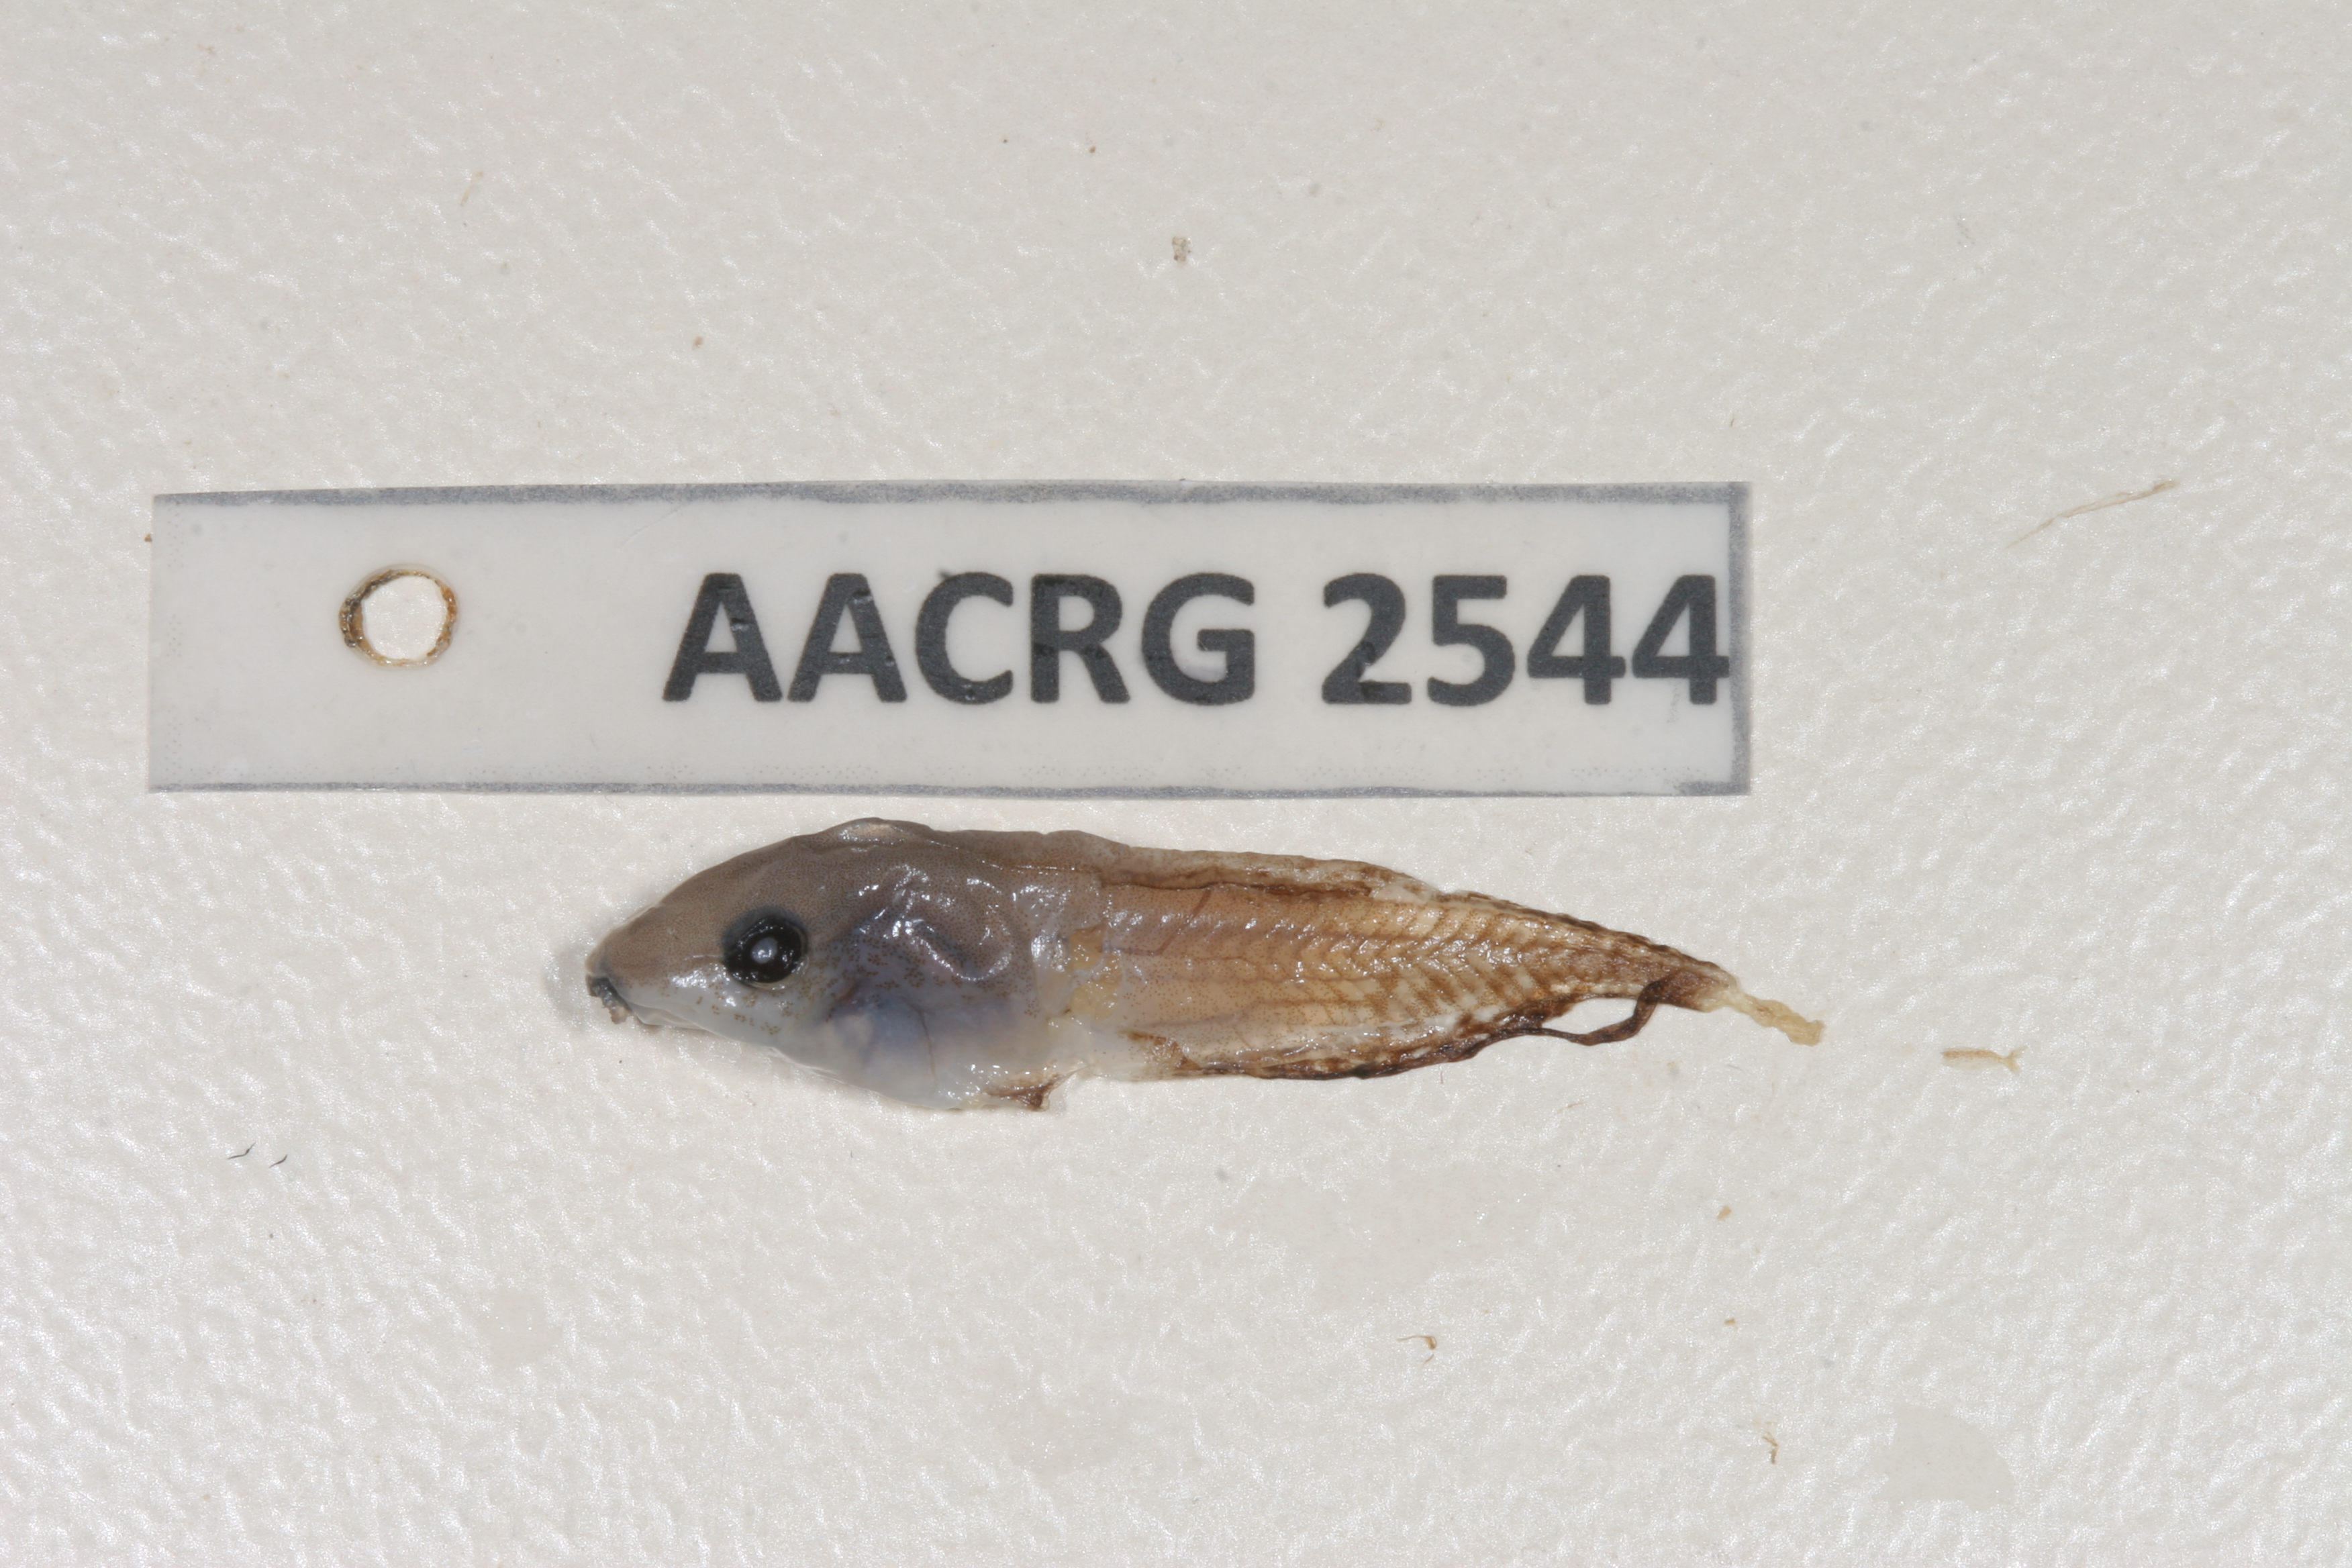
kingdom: Animalia
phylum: Chordata
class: Amphibia
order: Anura
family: Hyperoliidae
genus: Kassina
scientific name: Kassina senegalensis
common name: Senegal land frog
